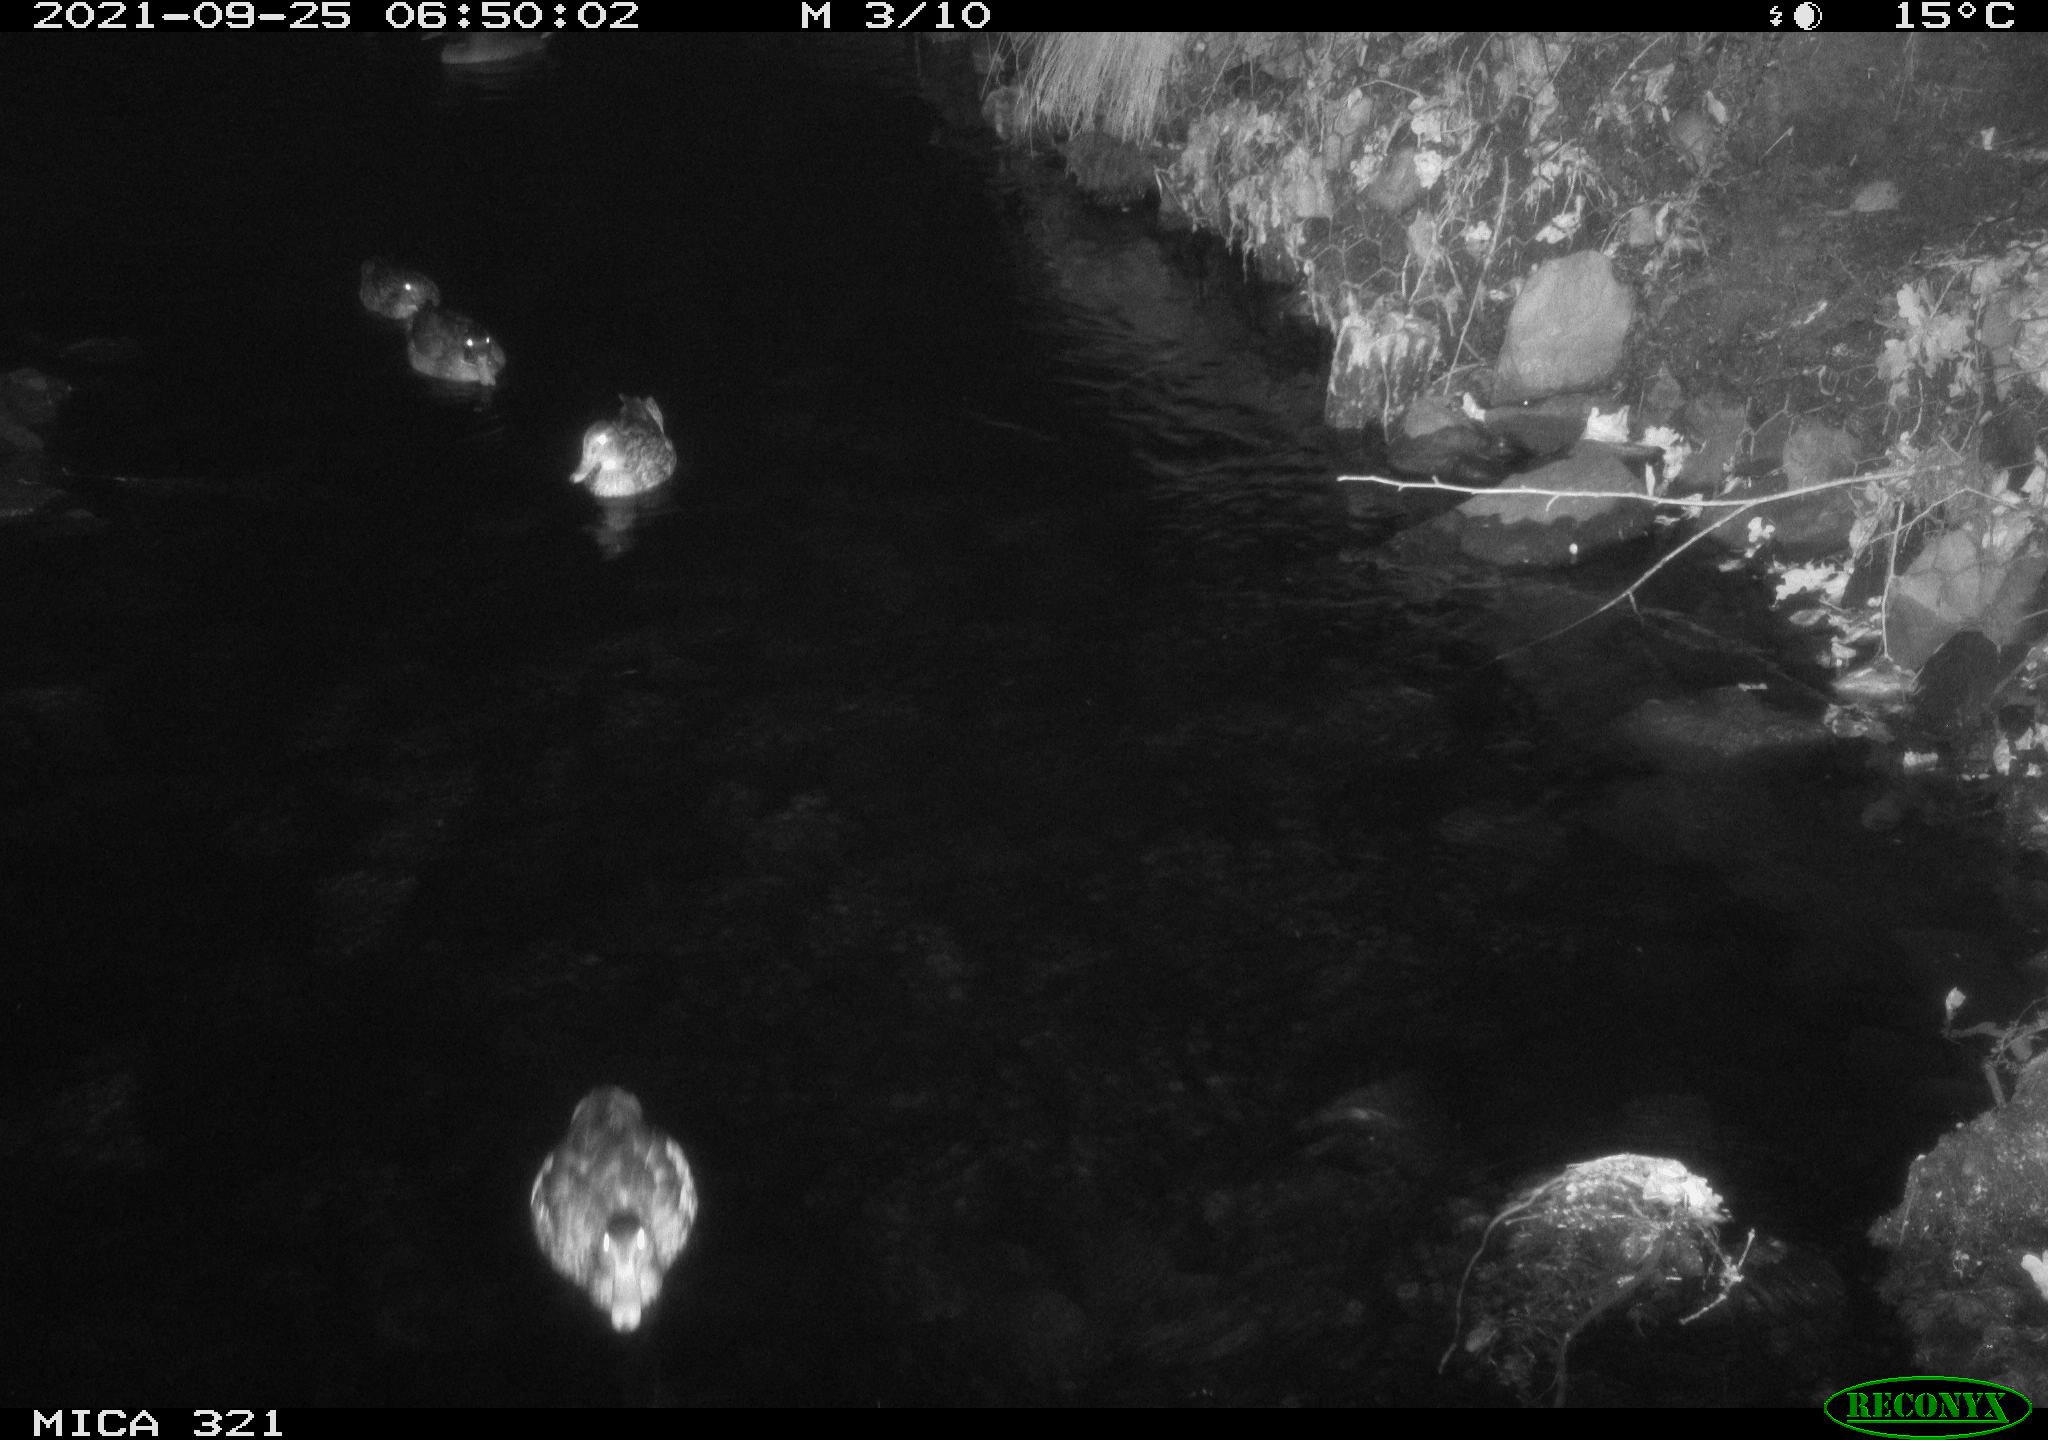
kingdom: Animalia
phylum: Chordata
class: Aves
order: Anseriformes
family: Anatidae
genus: Anas
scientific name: Anas platyrhynchos
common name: Mallard
